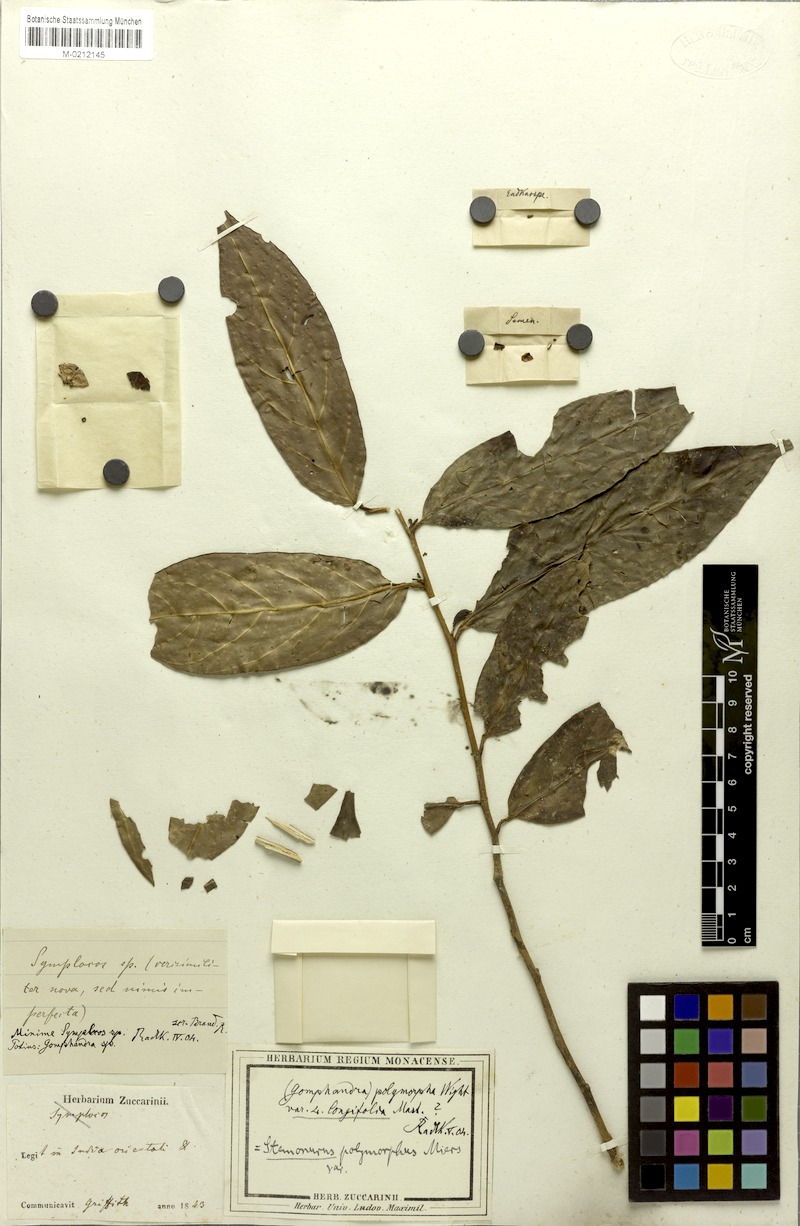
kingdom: Plantae
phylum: Tracheophyta
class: Magnoliopsida
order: Cardiopteridales
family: Stemonuraceae
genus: Gomphandra
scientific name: Gomphandra tetrandra
